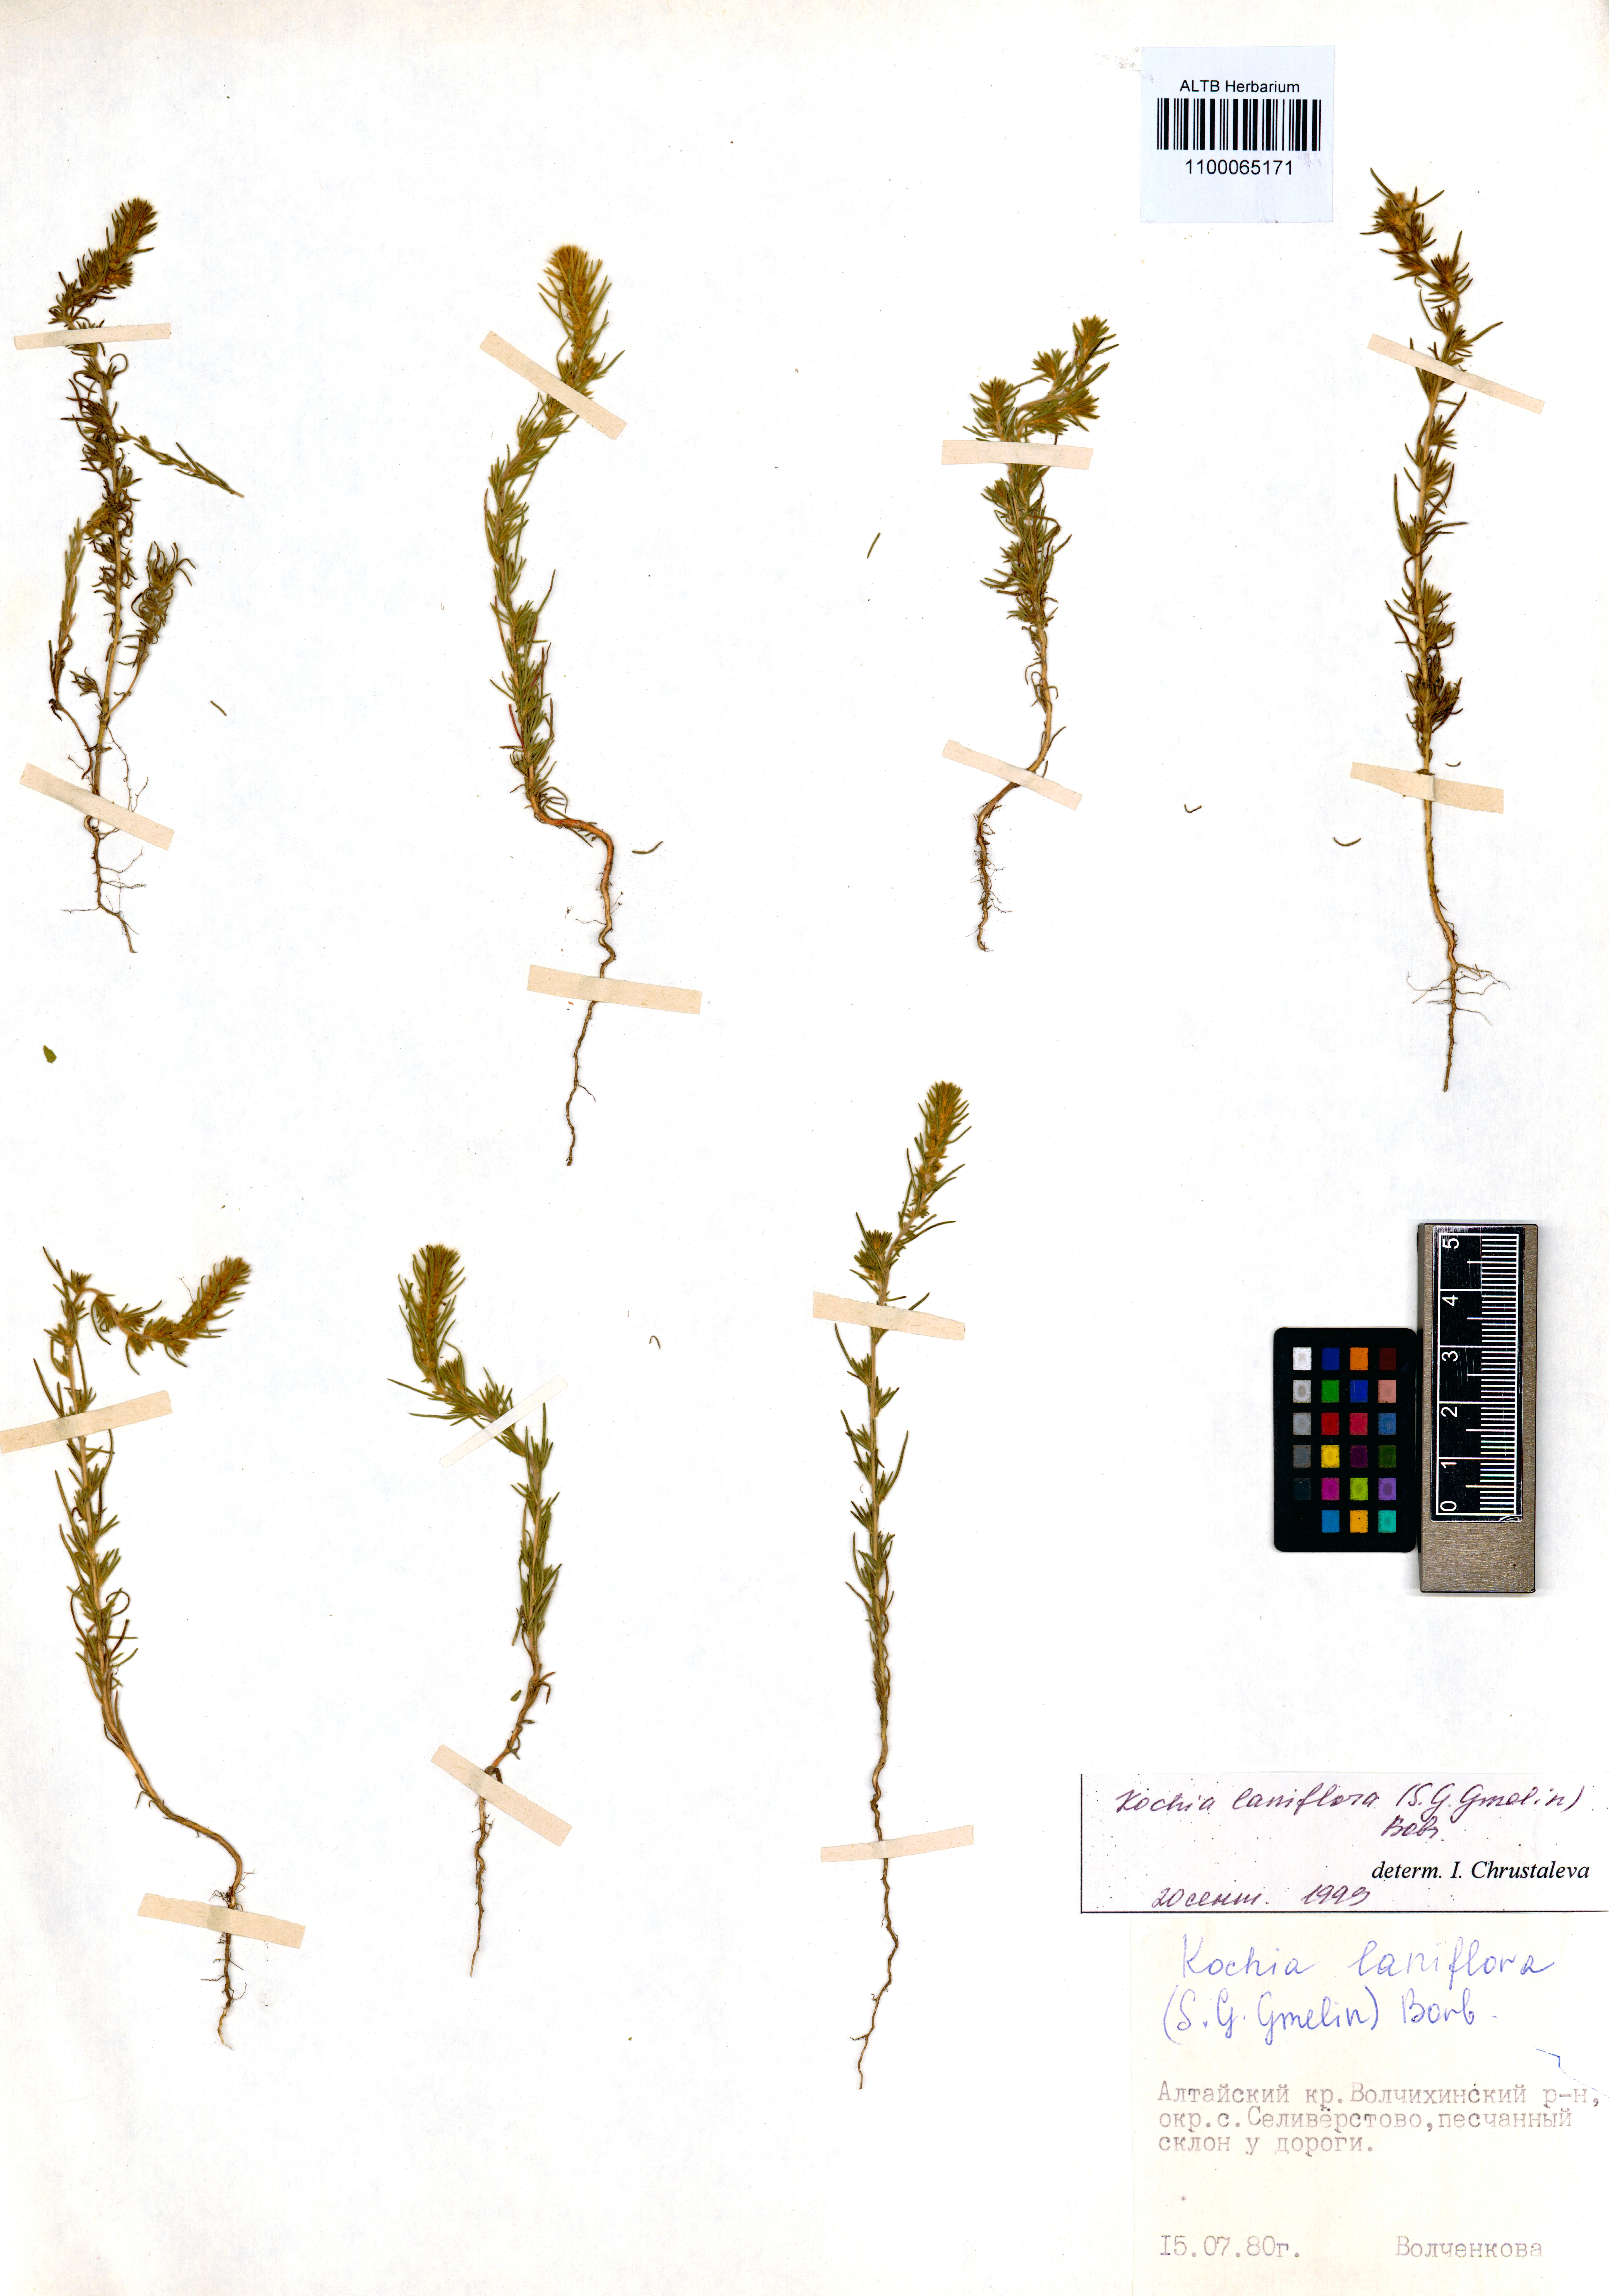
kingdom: Plantae
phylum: Tracheophyta
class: Magnoliopsida
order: Caryophyllales
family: Amaranthaceae
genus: Bassia
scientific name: Bassia laniflora
